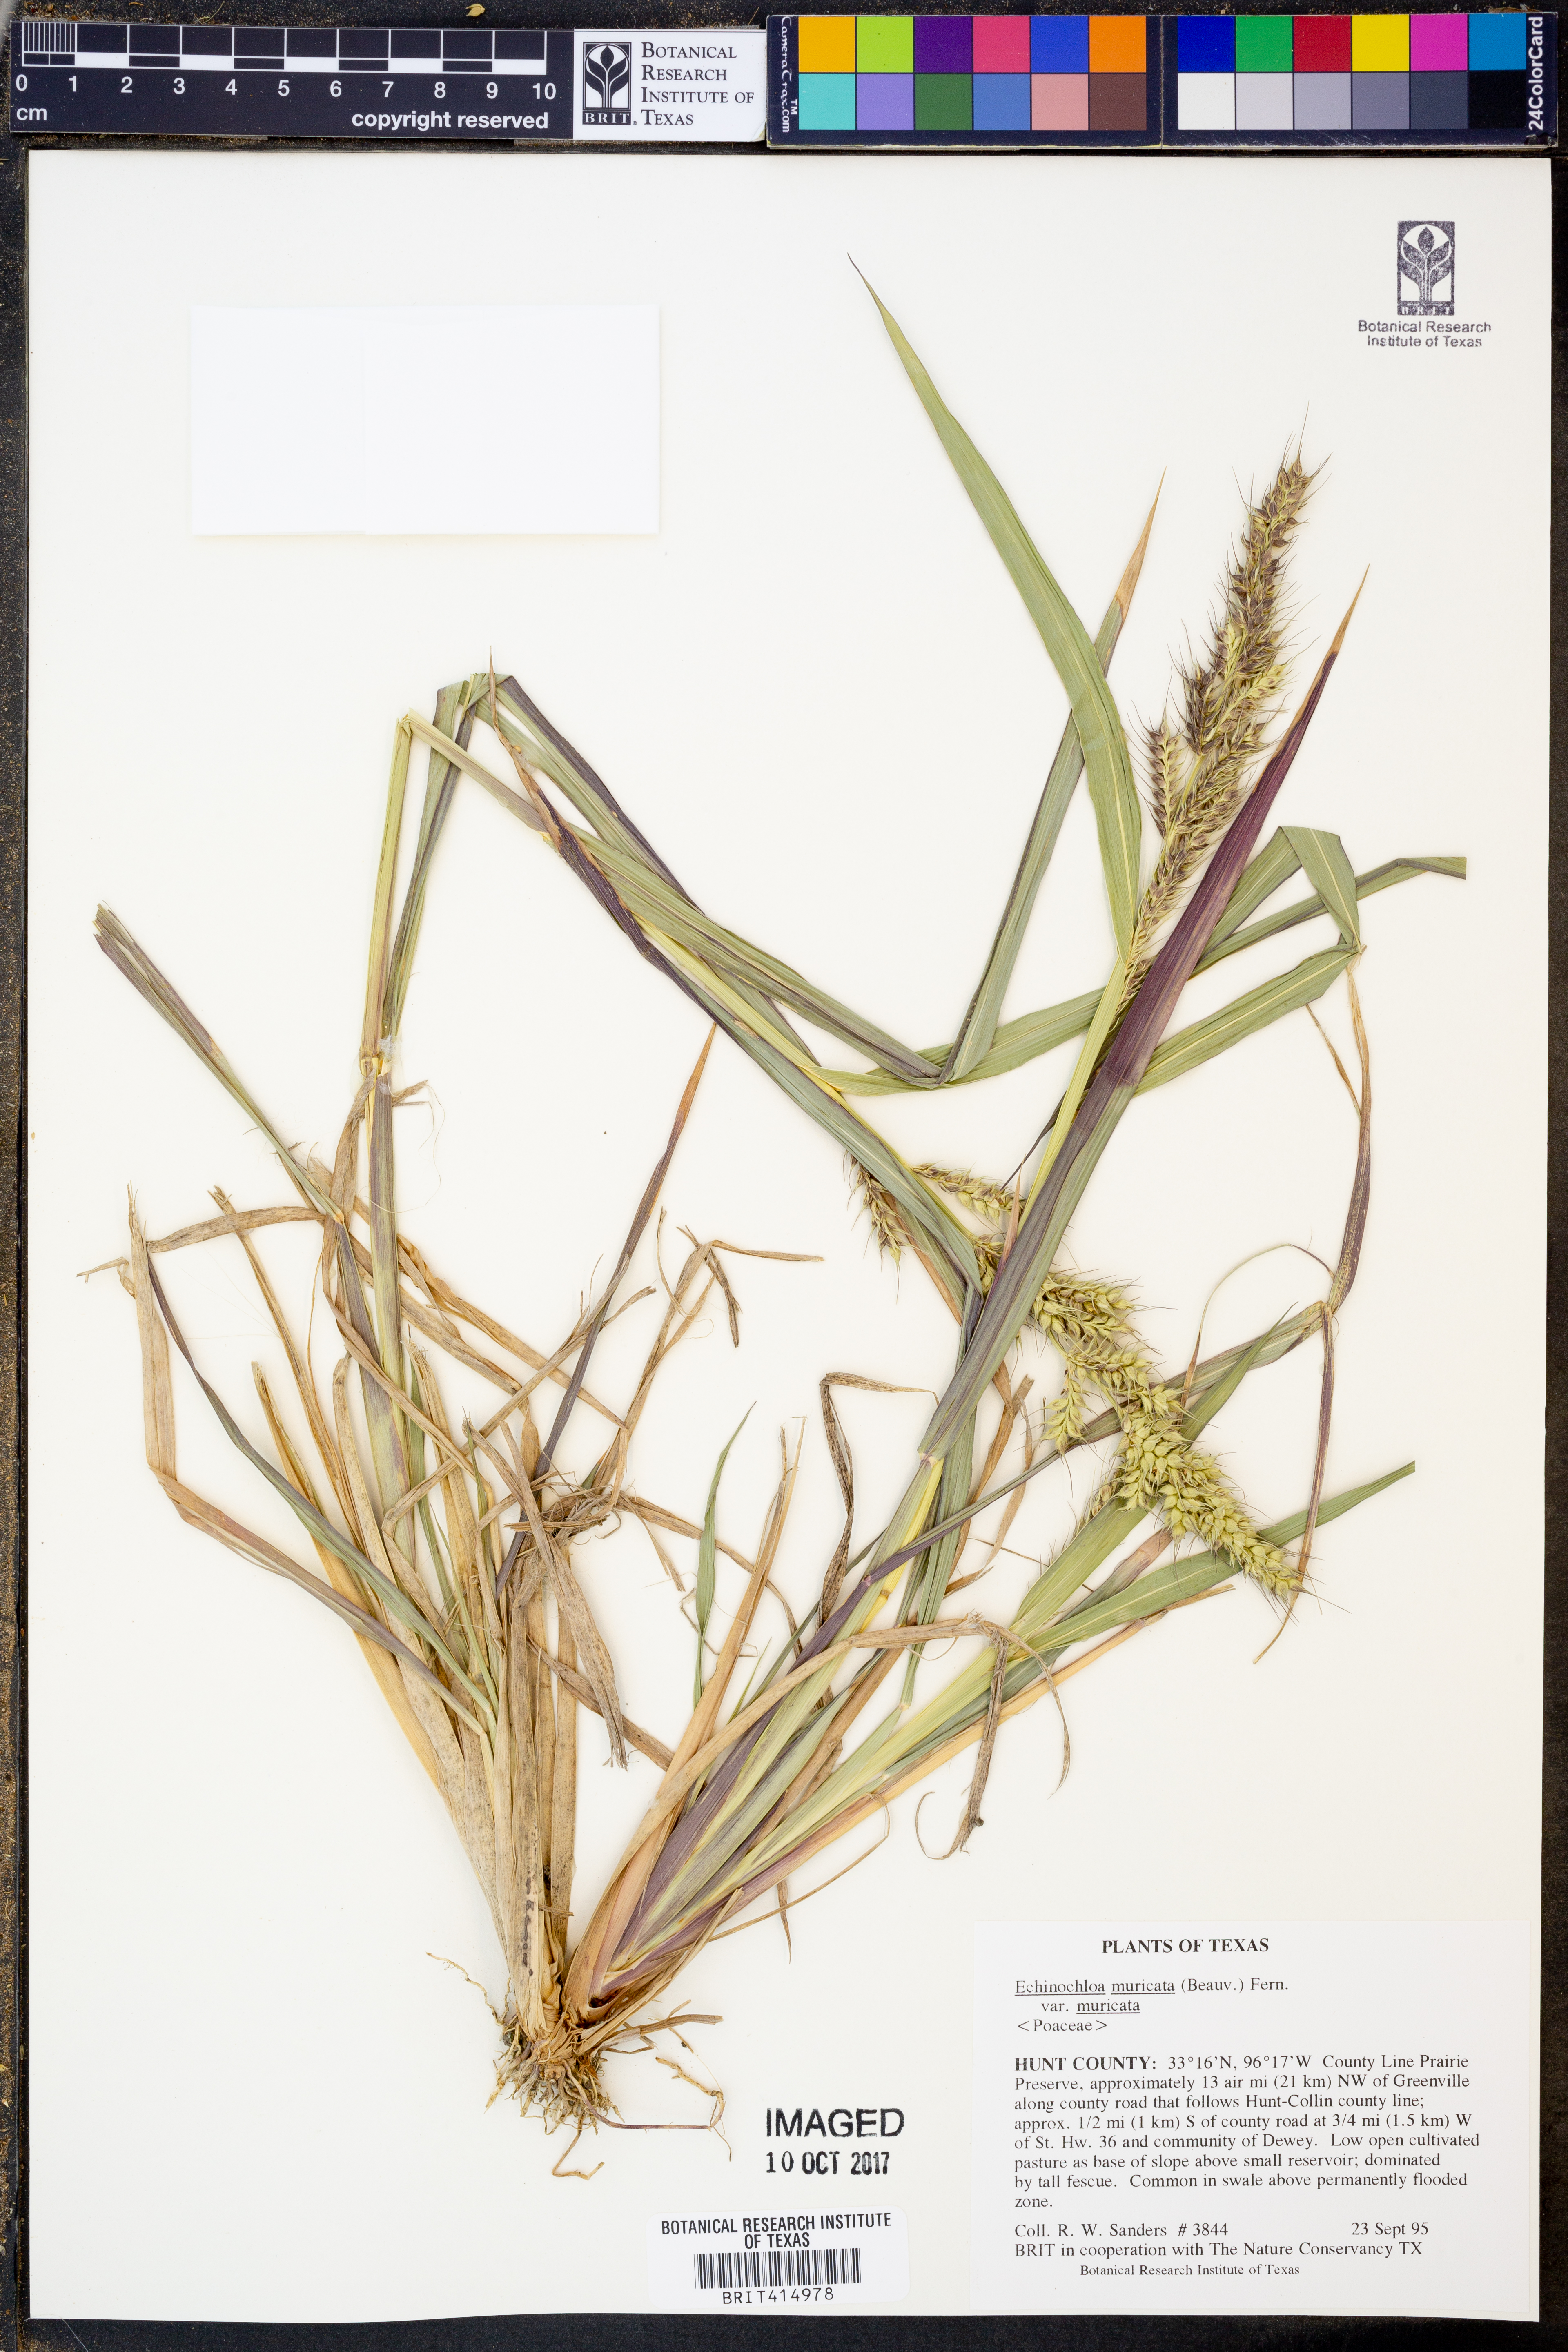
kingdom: Plantae
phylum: Tracheophyta
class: Liliopsida
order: Poales
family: Poaceae
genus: Echinochloa
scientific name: Echinochloa muricata
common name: American barnyard grass
